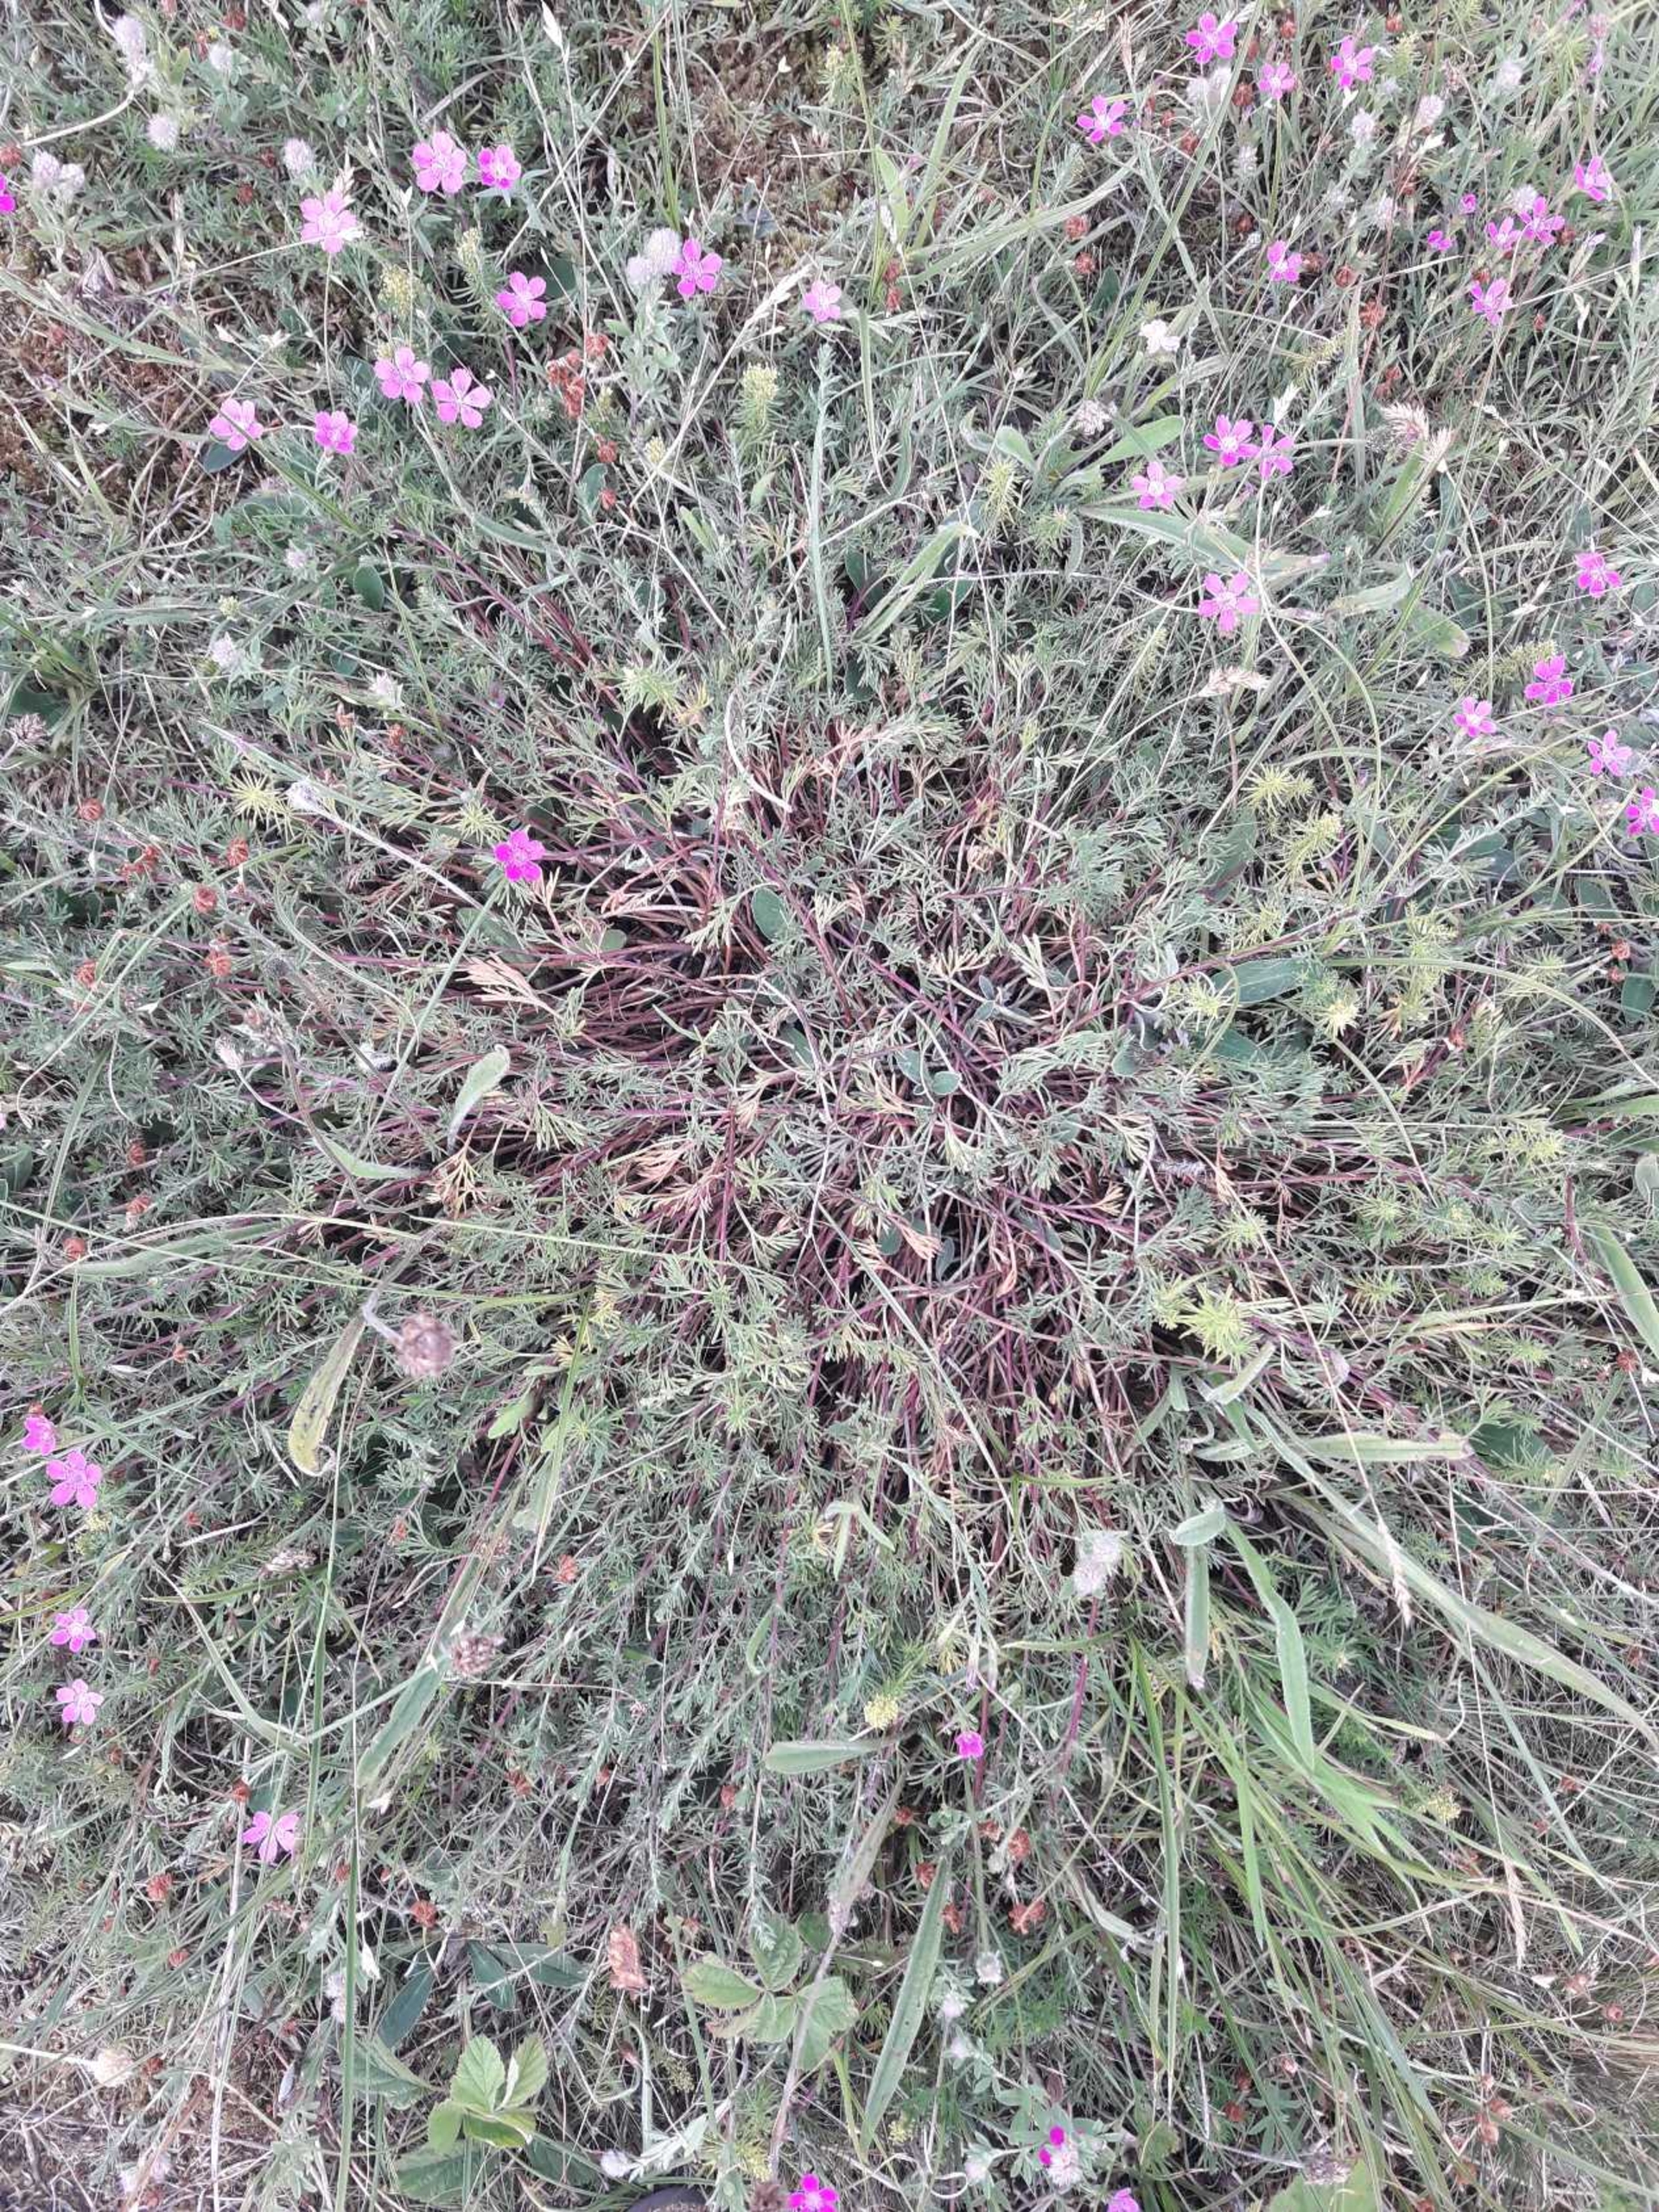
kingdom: Plantae
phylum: Tracheophyta
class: Magnoliopsida
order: Asterales
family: Asteraceae
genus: Artemisia
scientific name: Artemisia campestris
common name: Mark-bynke
